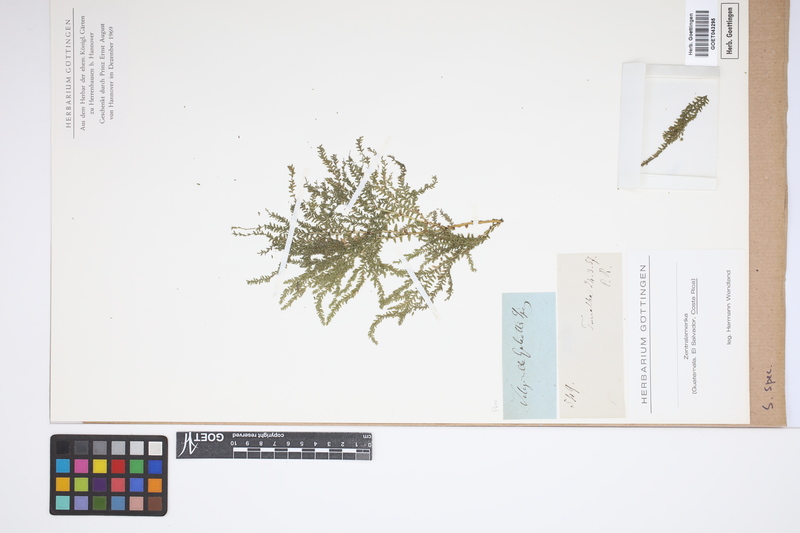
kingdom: Plantae
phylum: Tracheophyta
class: Lycopodiopsida
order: Selaginellales
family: Selaginellaceae
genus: Selaginella
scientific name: Selaginella
